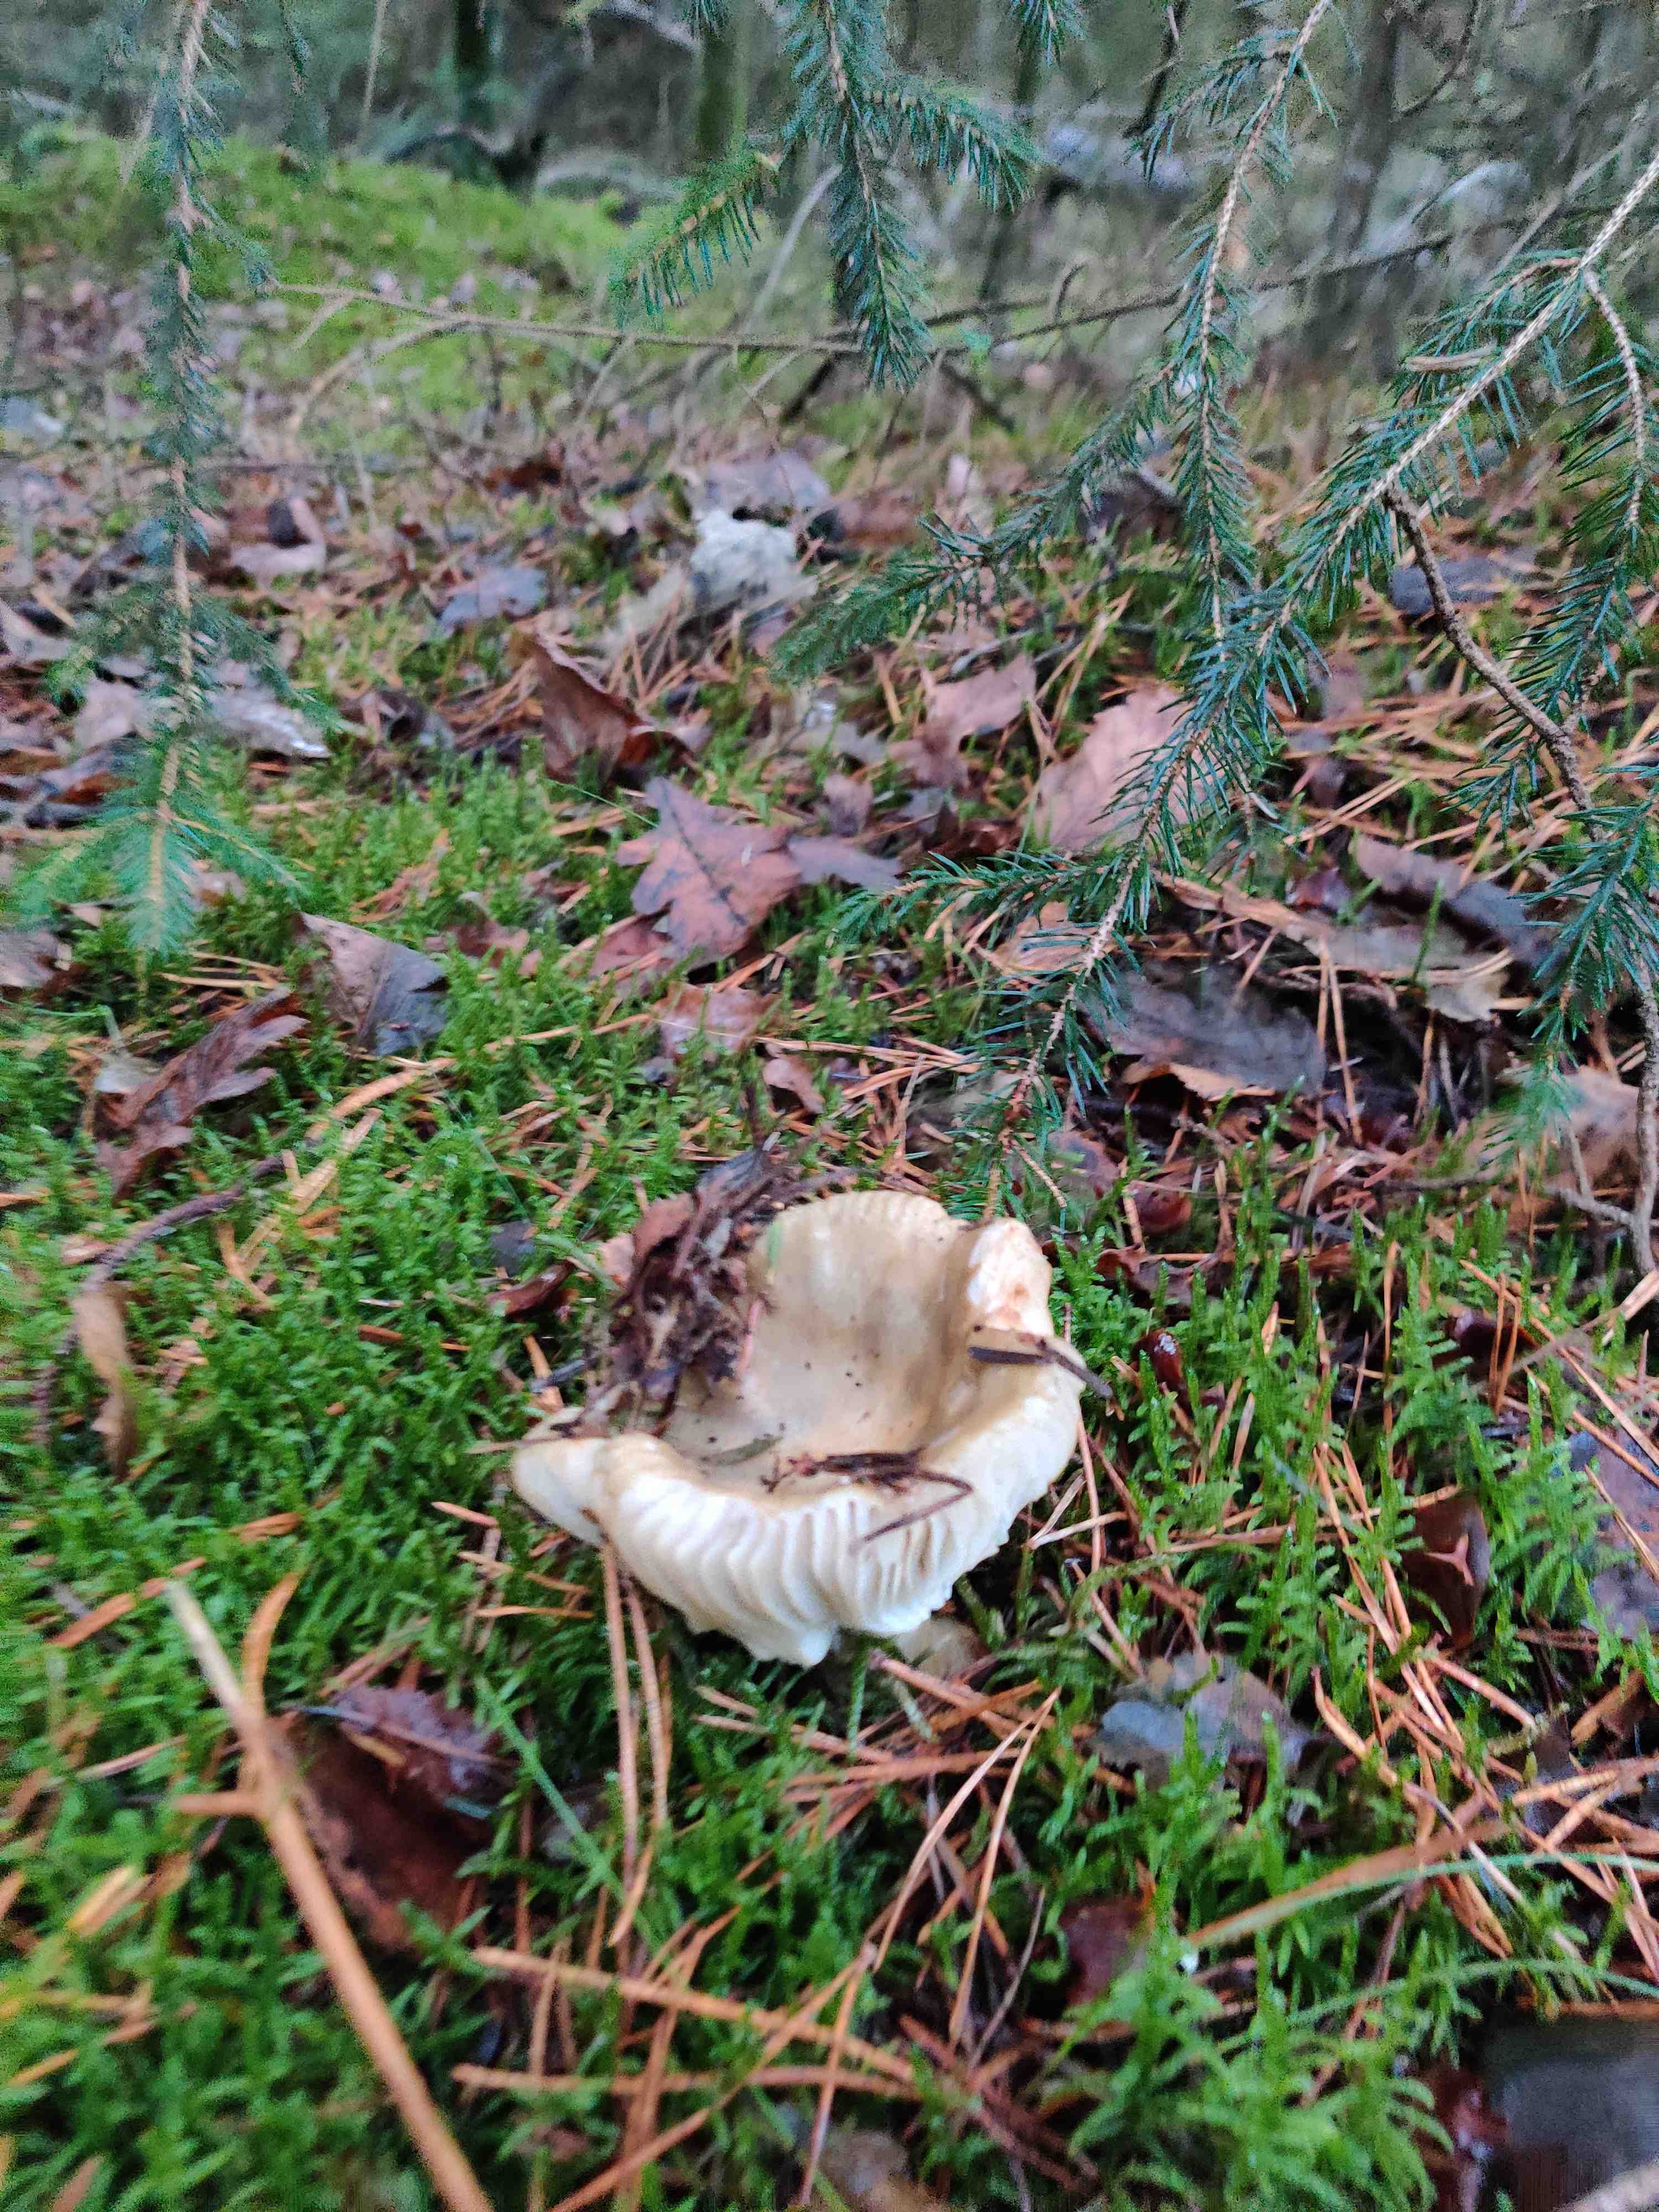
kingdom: Fungi
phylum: Basidiomycota
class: Agaricomycetes
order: Russulales
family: Russulaceae
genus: Russula
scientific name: Russula ochroleuca
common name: okkergul skørhat
